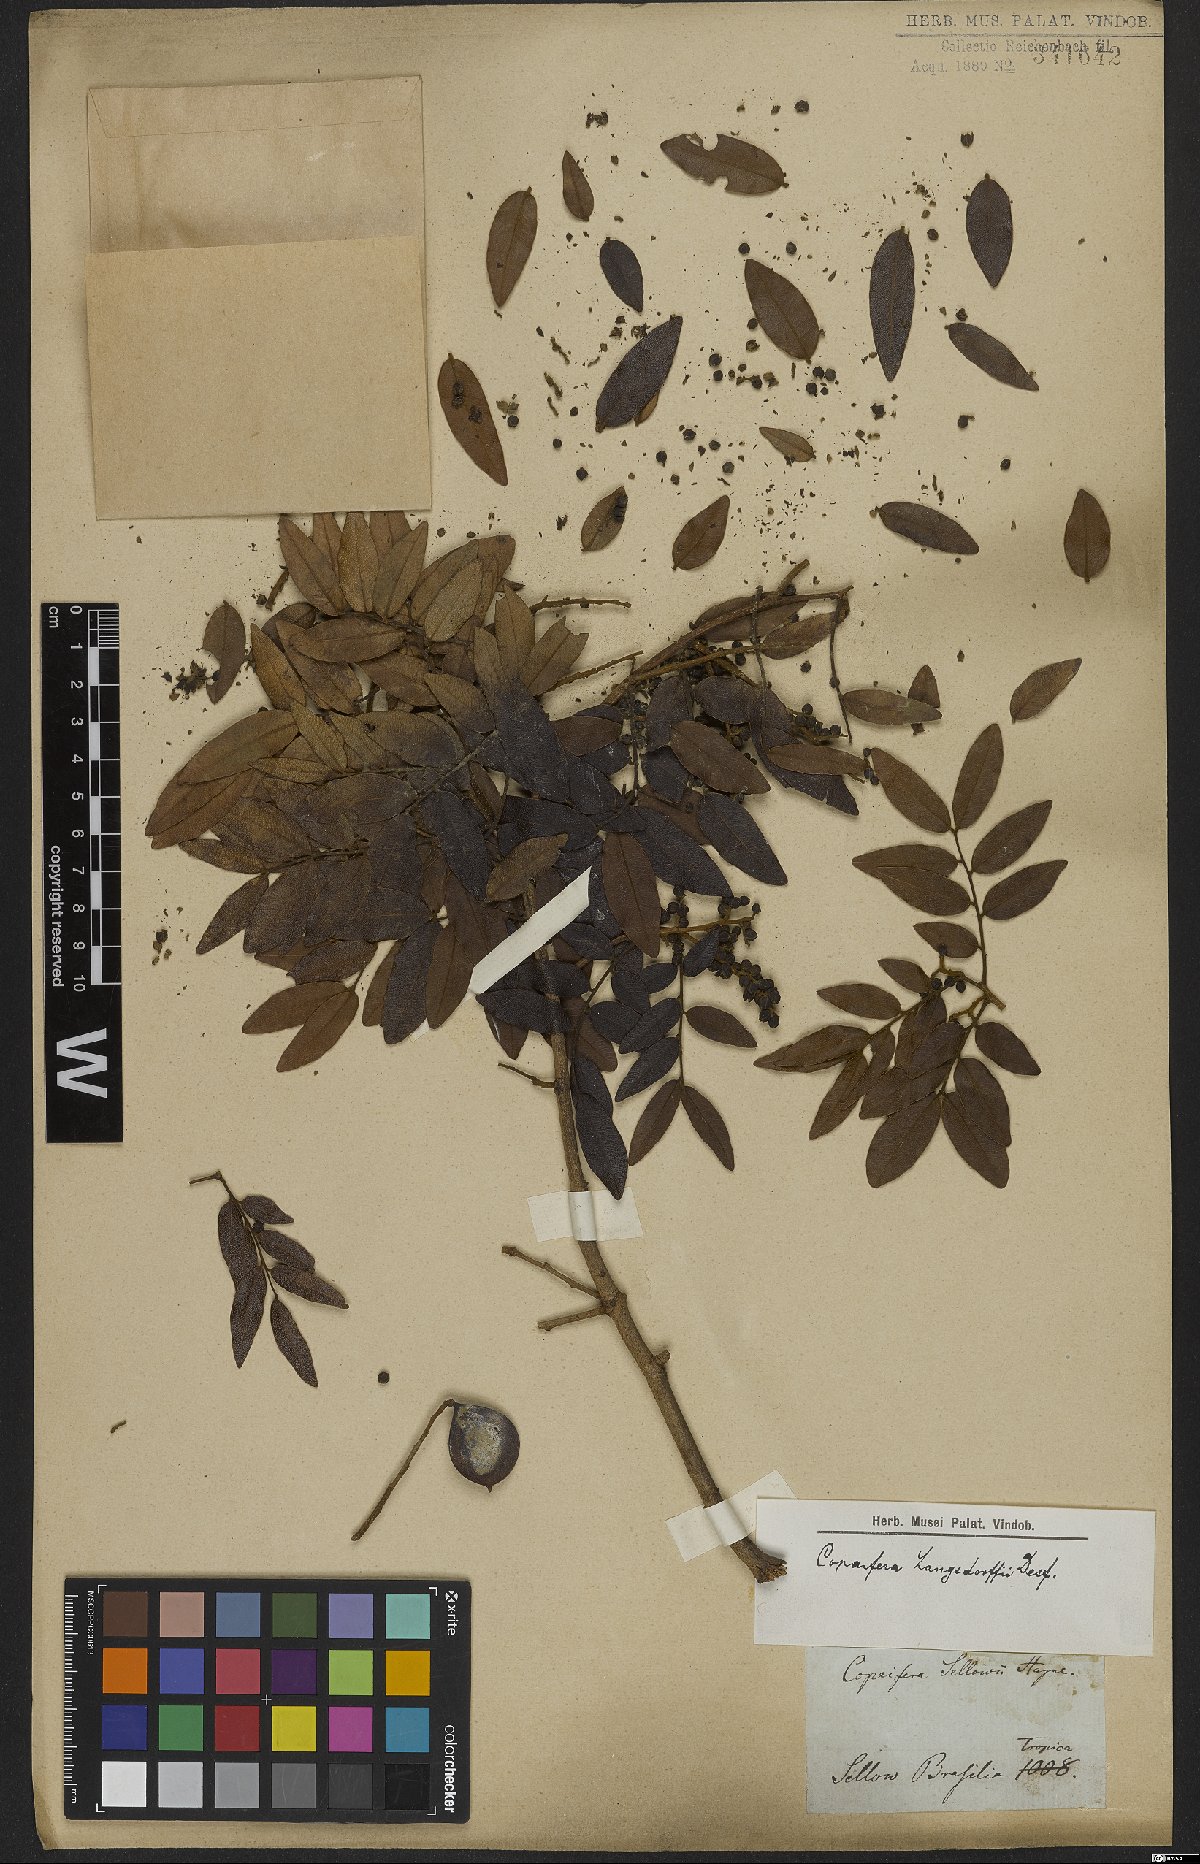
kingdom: Plantae
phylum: Tracheophyta
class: Magnoliopsida
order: Fabales
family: Fabaceae
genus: Copaifera
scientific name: Copaifera langsdorffii
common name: Brazilian diesel tree
